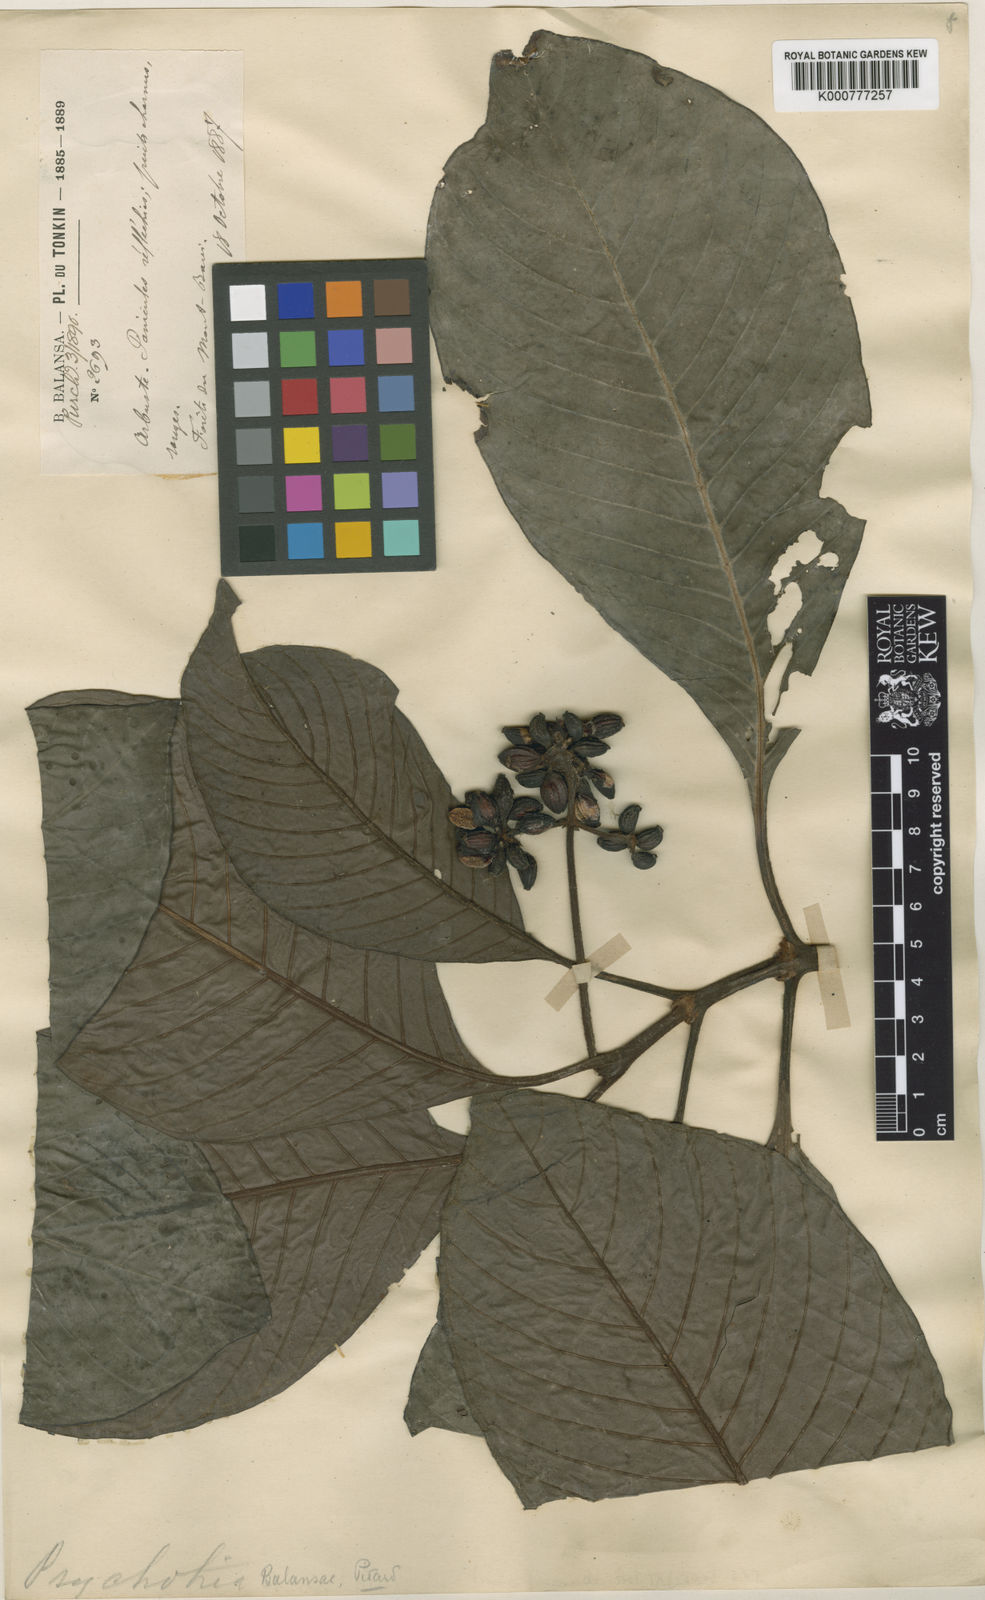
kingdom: Plantae
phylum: Tracheophyta
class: Magnoliopsida
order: Gentianales
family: Rubiaceae
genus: Psychotria
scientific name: Psychotria monticola
